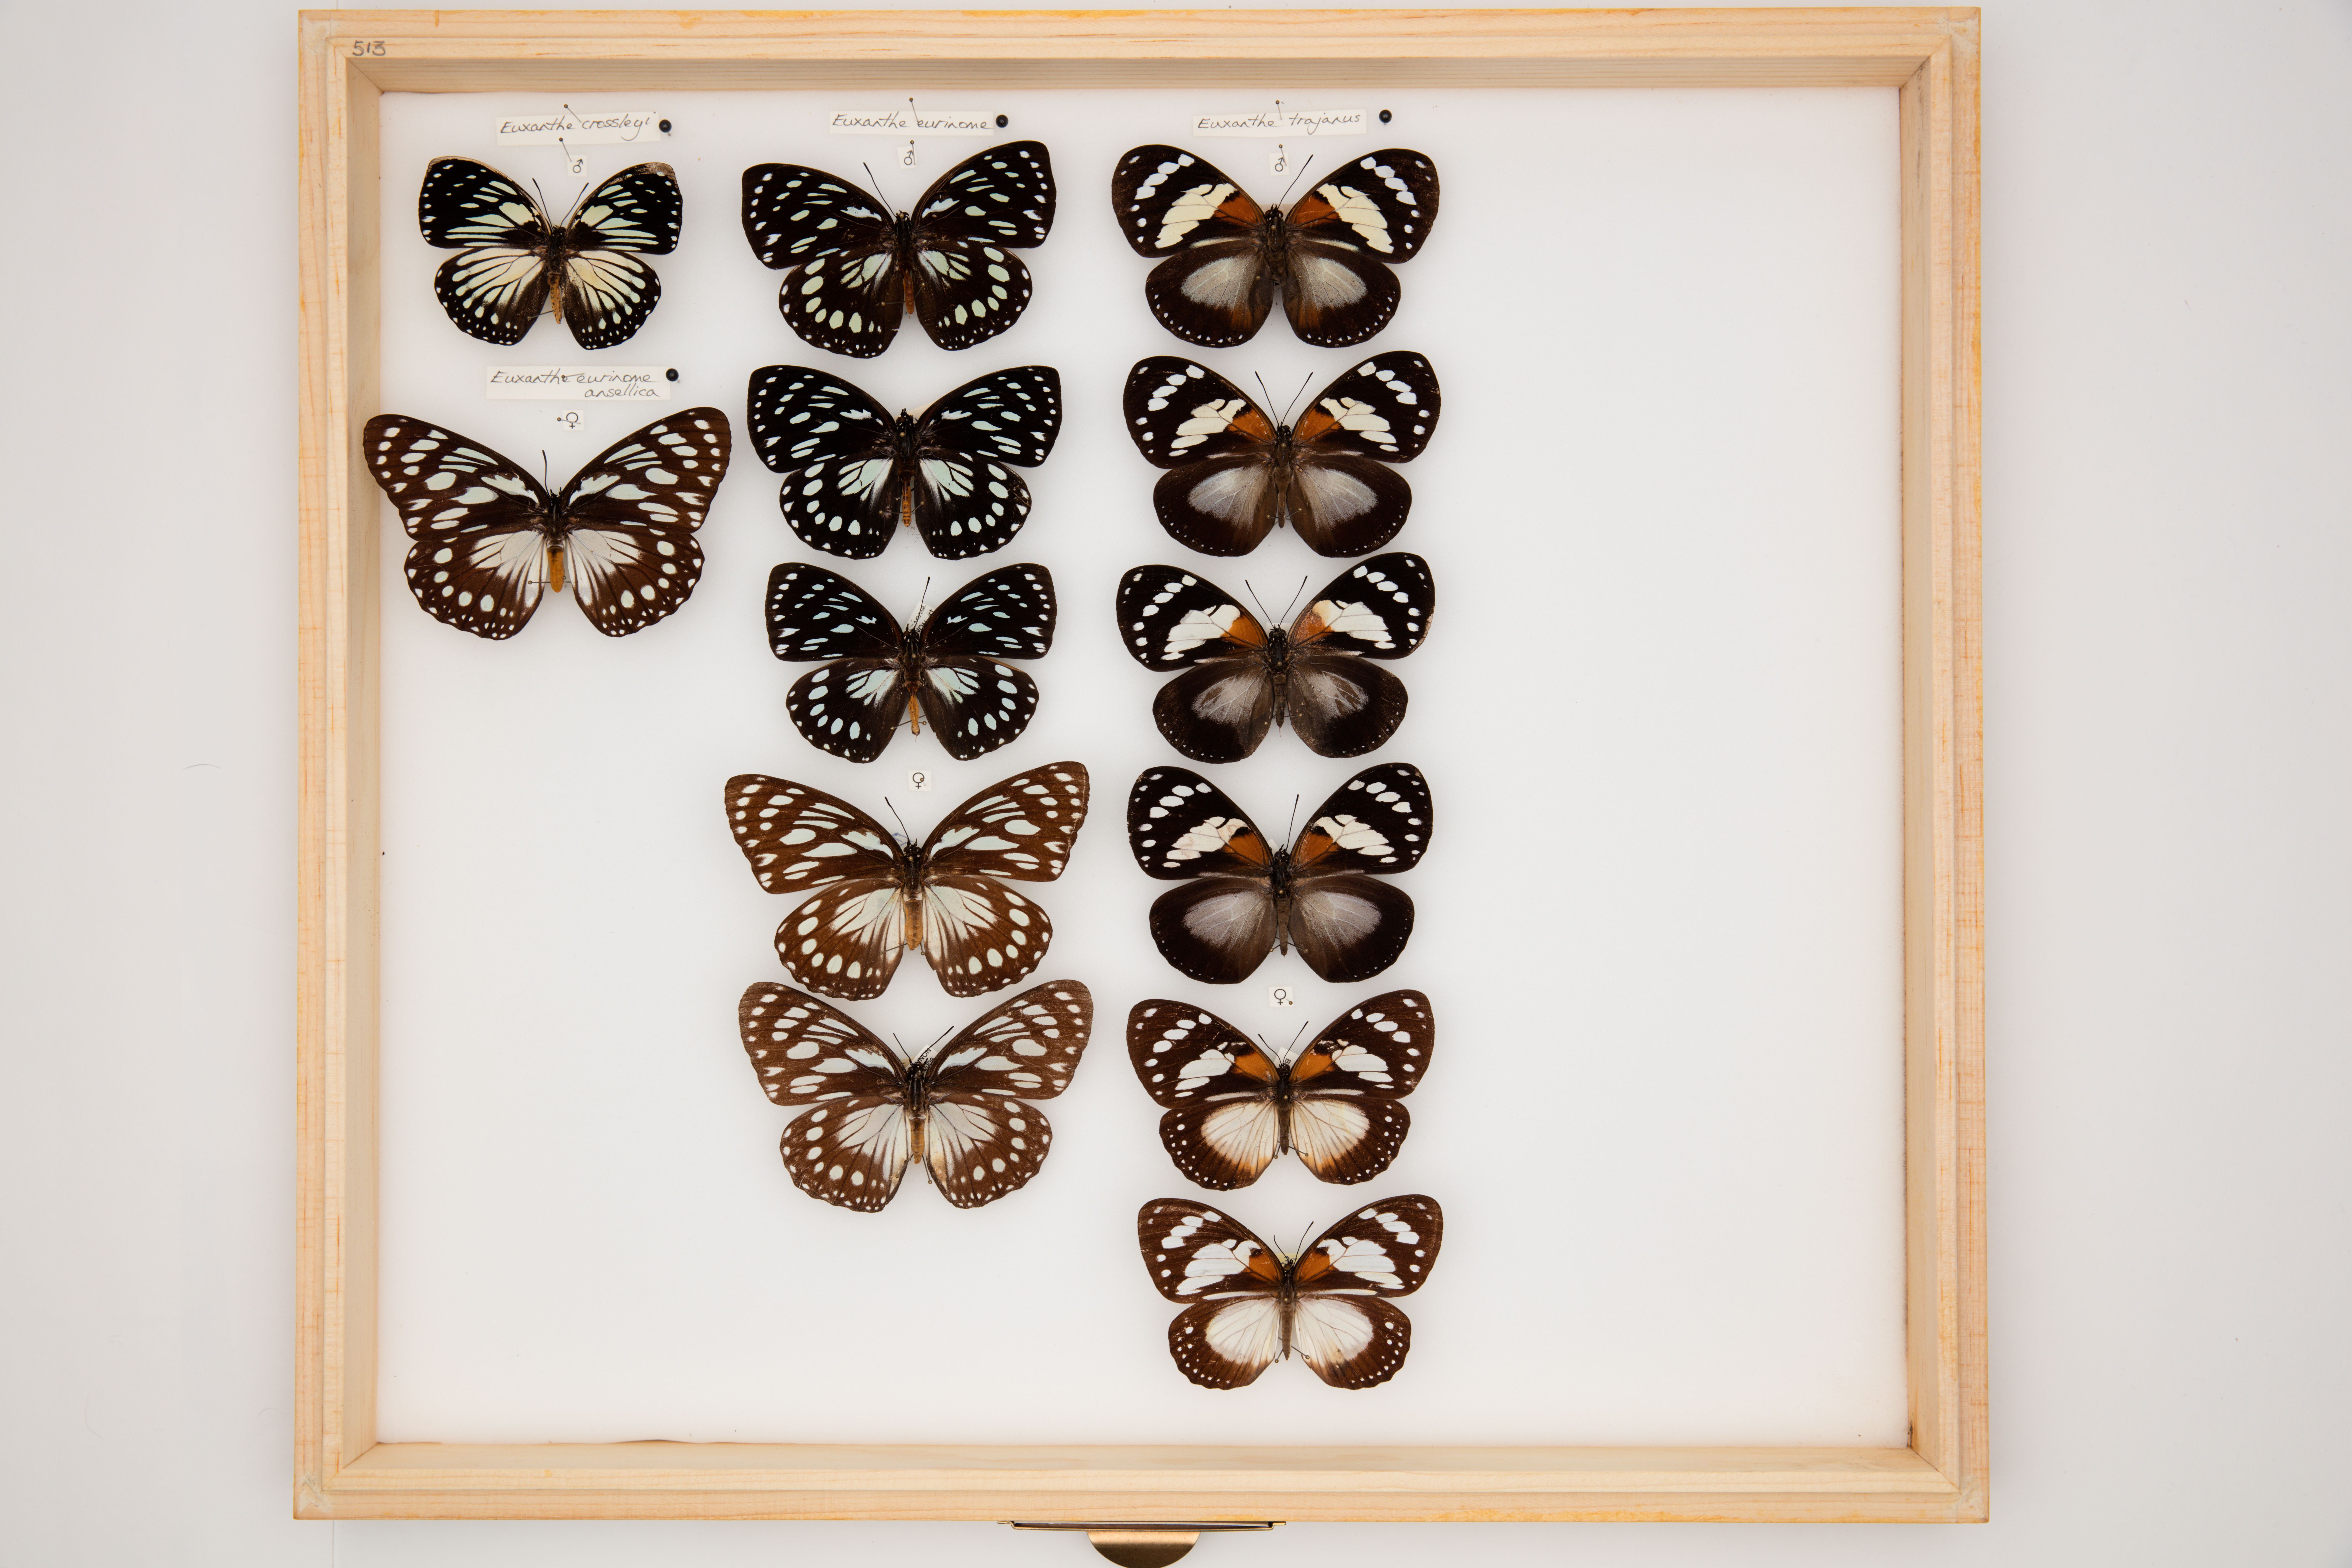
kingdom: Animalia
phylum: Arthropoda
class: Insecta
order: Lepidoptera
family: Nymphalidae
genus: Euxanthe
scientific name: Euxanthe trajanus
